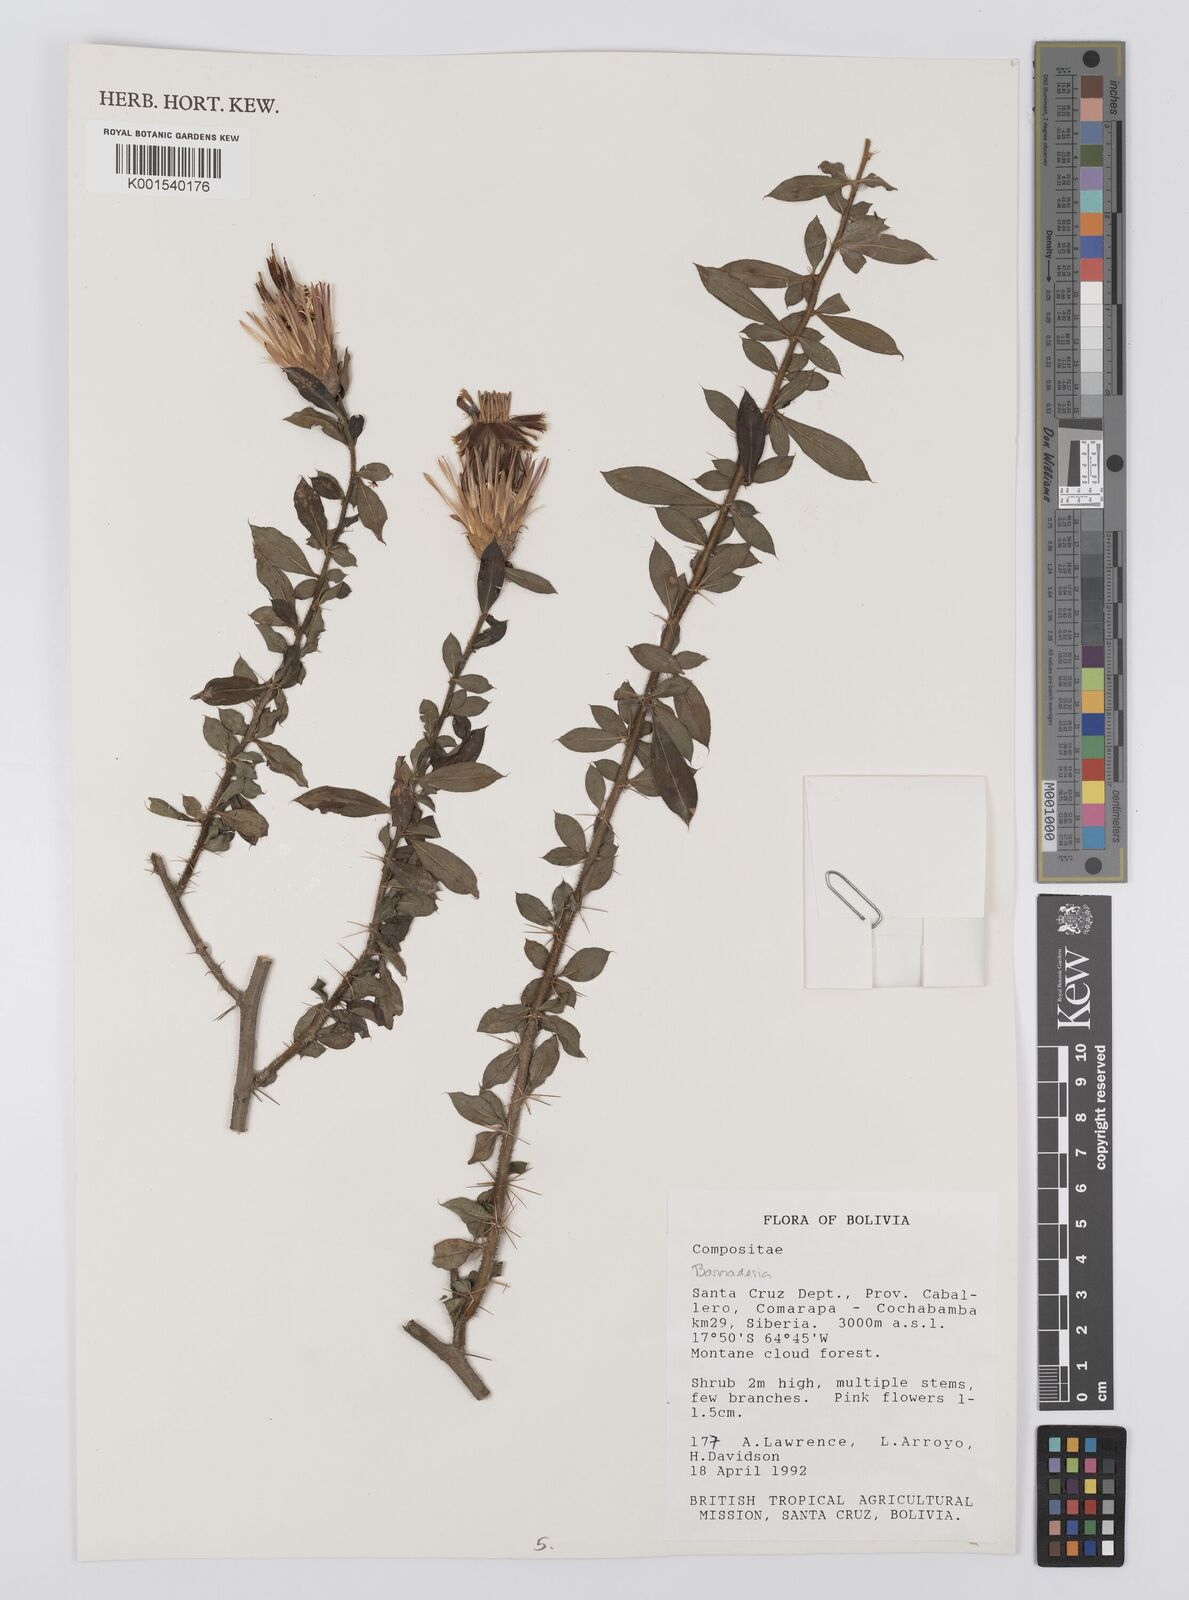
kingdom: Plantae
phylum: Tracheophyta
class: Magnoliopsida
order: Asterales
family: Asteraceae
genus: Barnadesia
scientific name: Barnadesia
